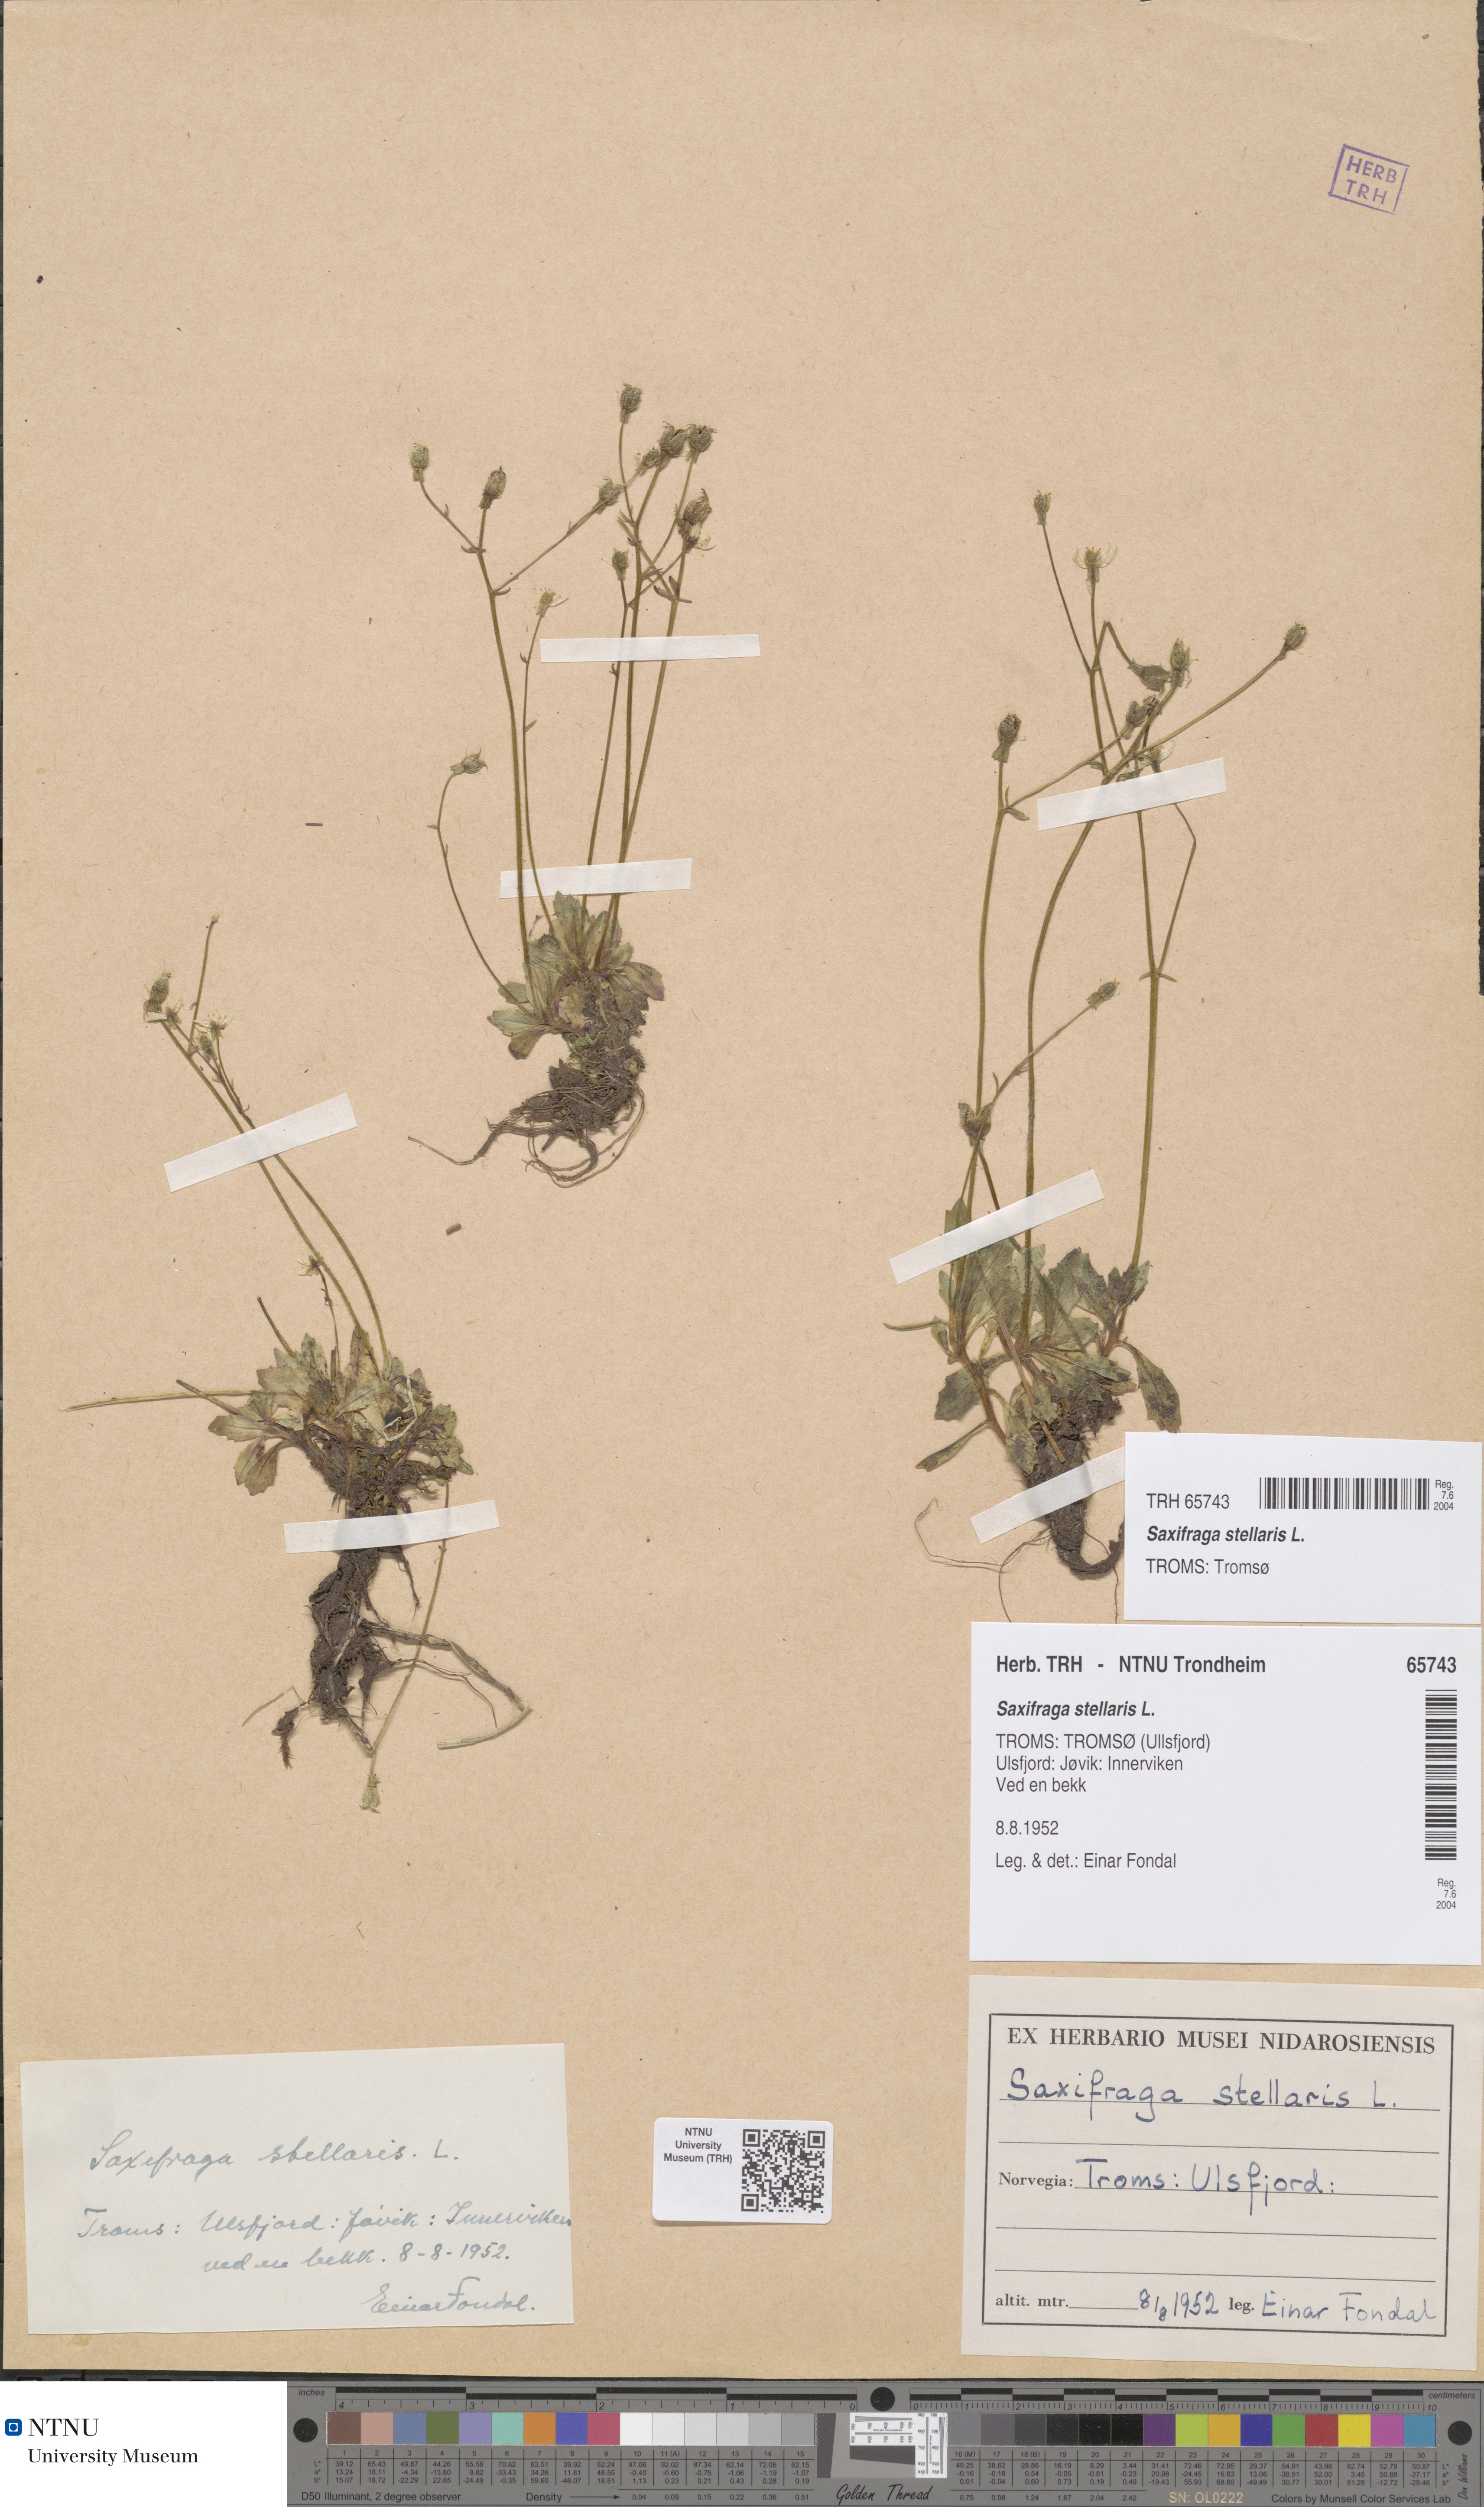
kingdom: Plantae
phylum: Tracheophyta
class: Magnoliopsida
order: Saxifragales
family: Saxifragaceae
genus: Micranthes
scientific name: Micranthes stellaris
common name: Starry saxifrage
